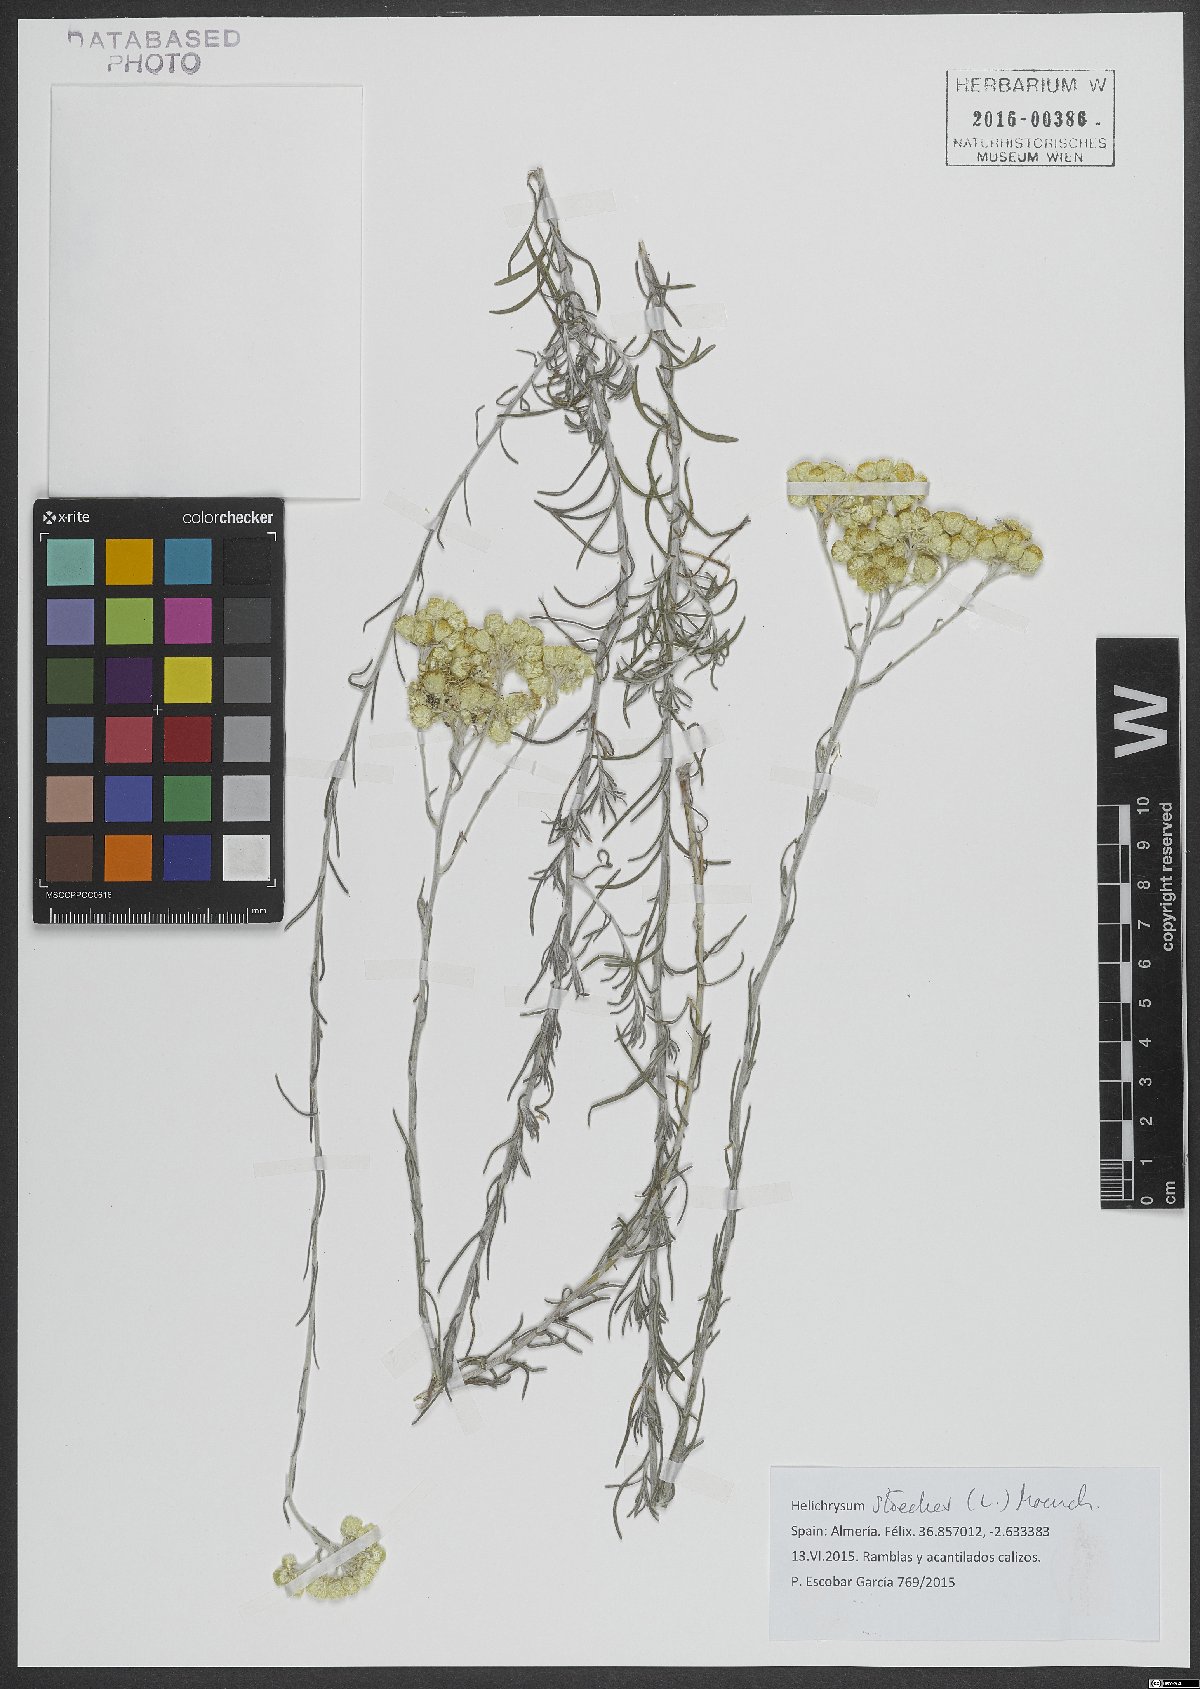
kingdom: Plantae
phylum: Tracheophyta
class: Magnoliopsida
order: Asterales
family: Asteraceae
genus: Helichrysum
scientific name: Helichrysum stoechas
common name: Goldilocks
